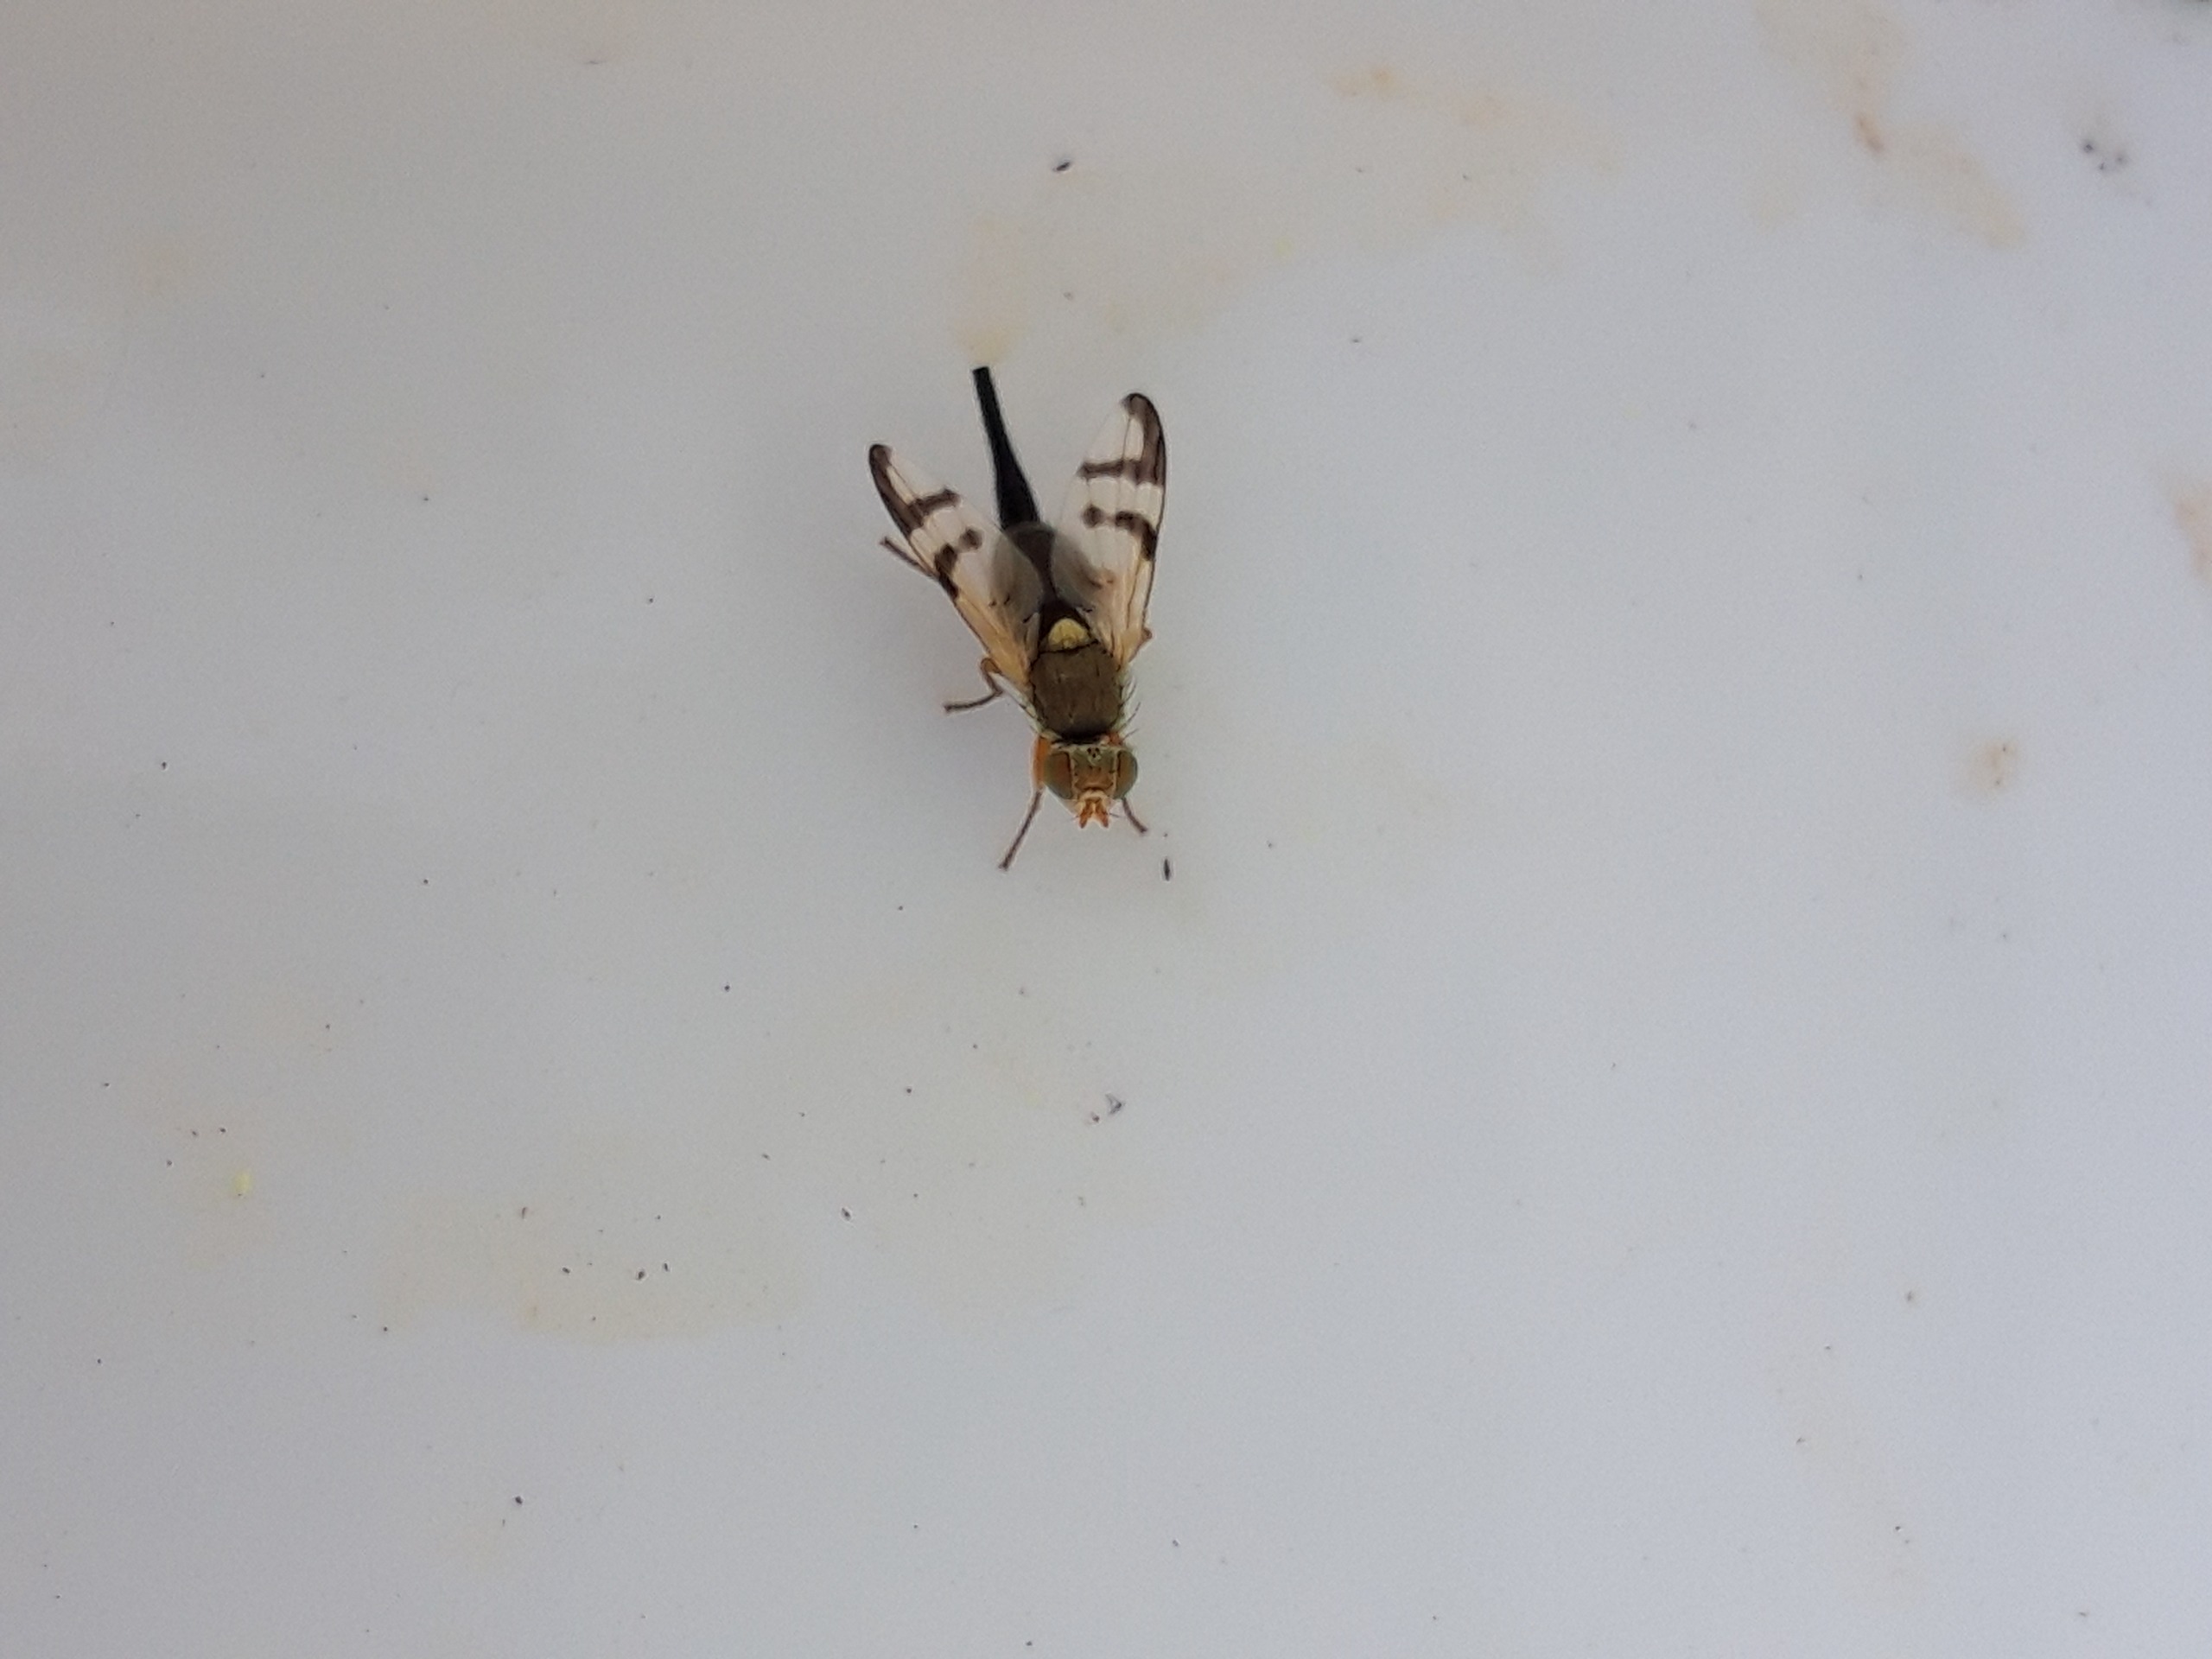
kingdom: Animalia
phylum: Arthropoda
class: Insecta
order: Diptera
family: Tephritidae
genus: Urophora
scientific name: Urophora stylata
